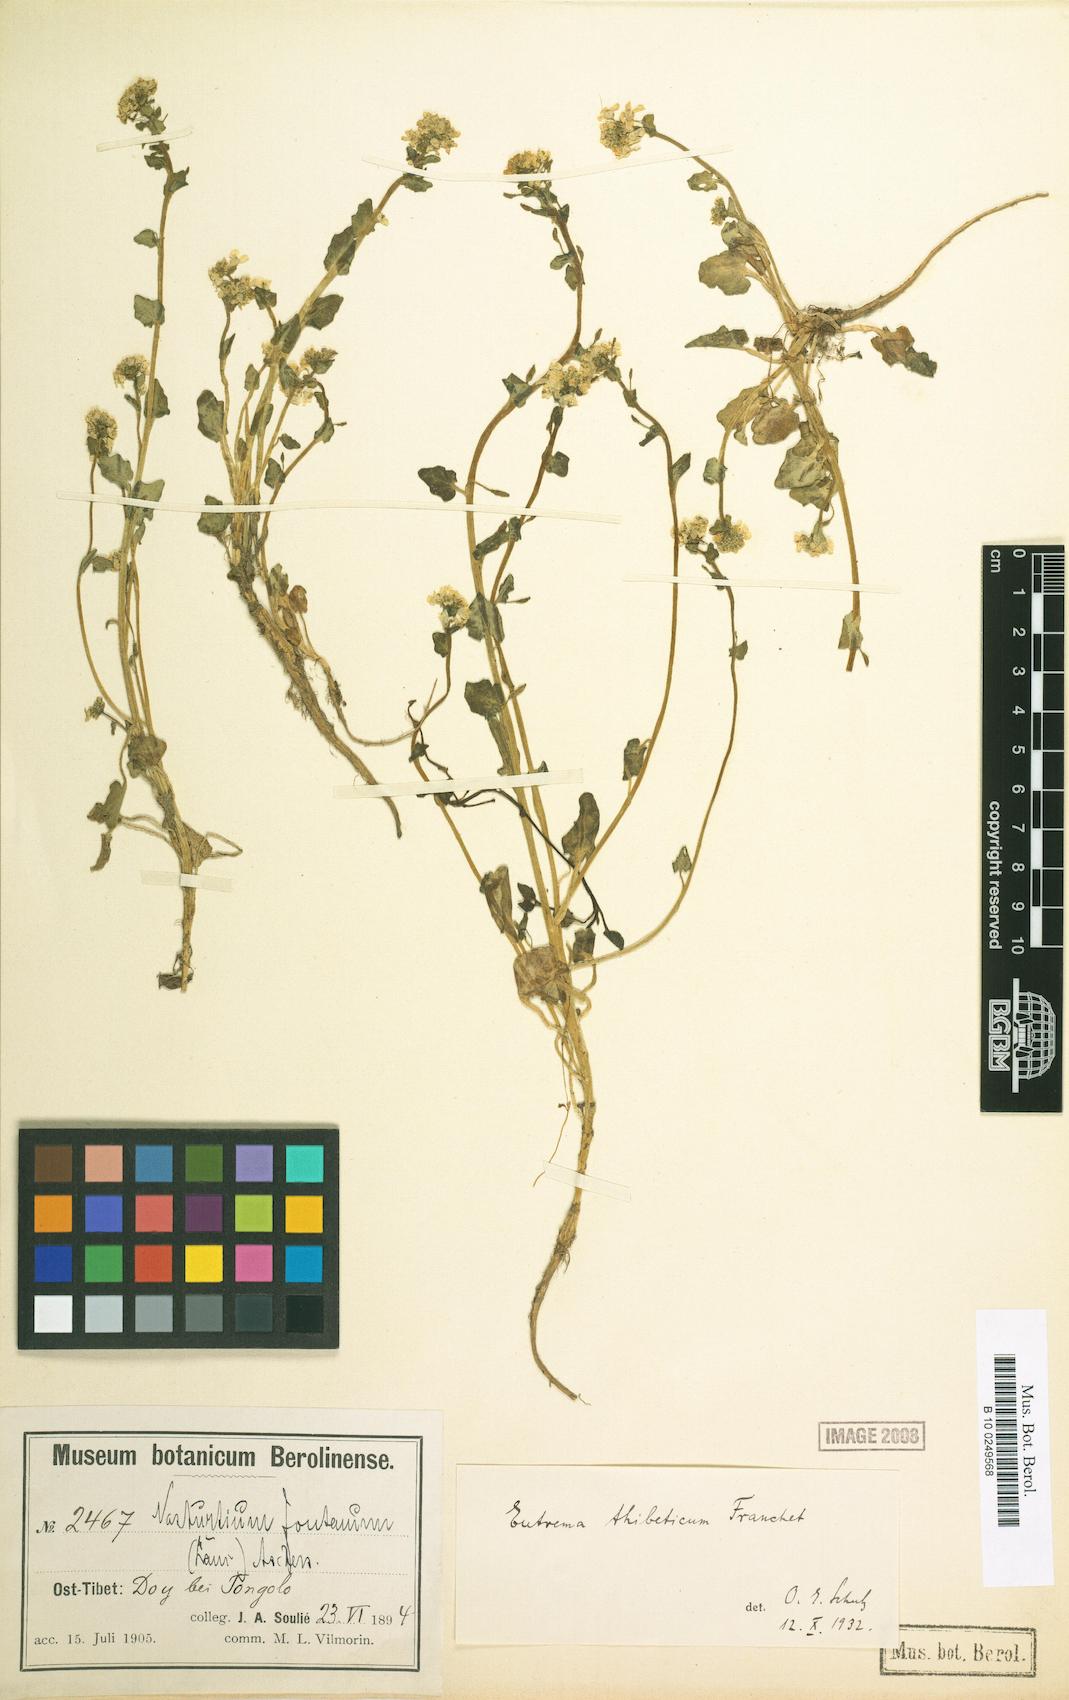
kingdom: Plantae
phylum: Tracheophyta
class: Magnoliopsida
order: Brassicales
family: Brassicaceae
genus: Eutrema
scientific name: Eutrema tenue
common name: Lesser wasabi
